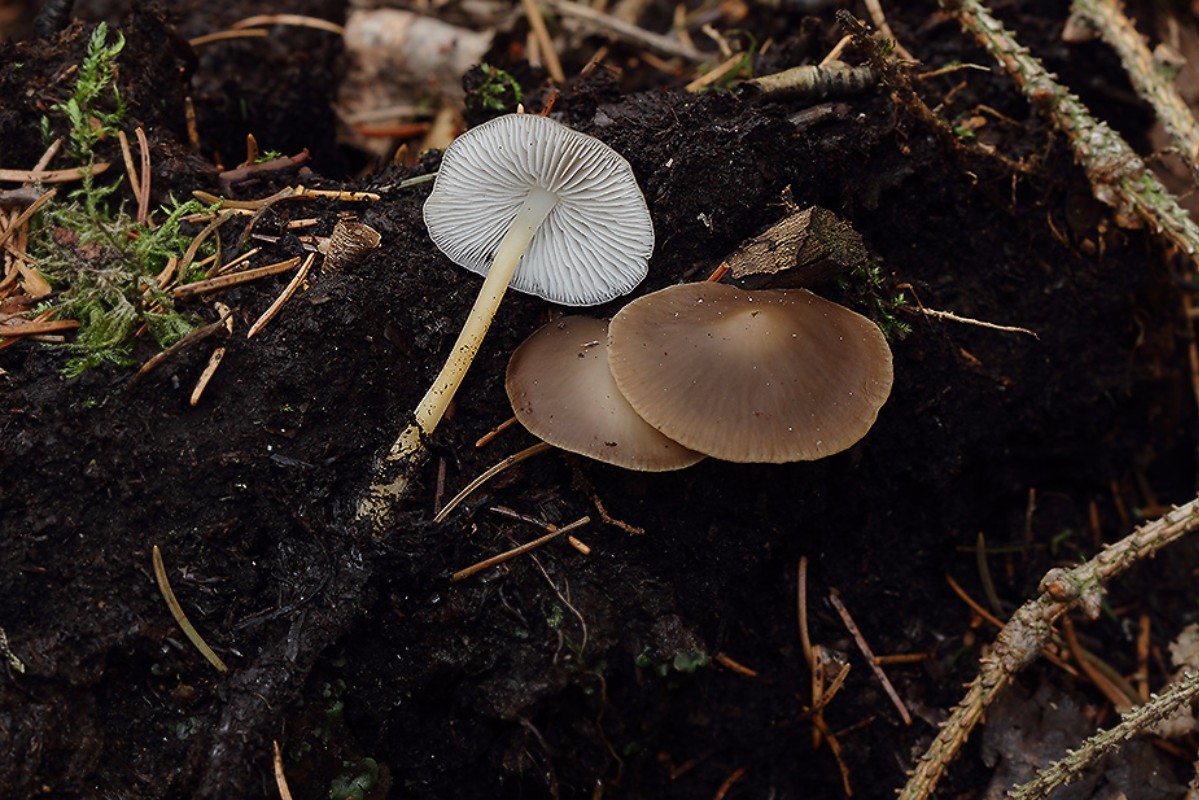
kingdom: Fungi
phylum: Basidiomycota
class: Agaricomycetes
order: Agaricales
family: Physalacriaceae
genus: Strobilurus
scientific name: Strobilurus esculentus
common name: gran-koglehat
